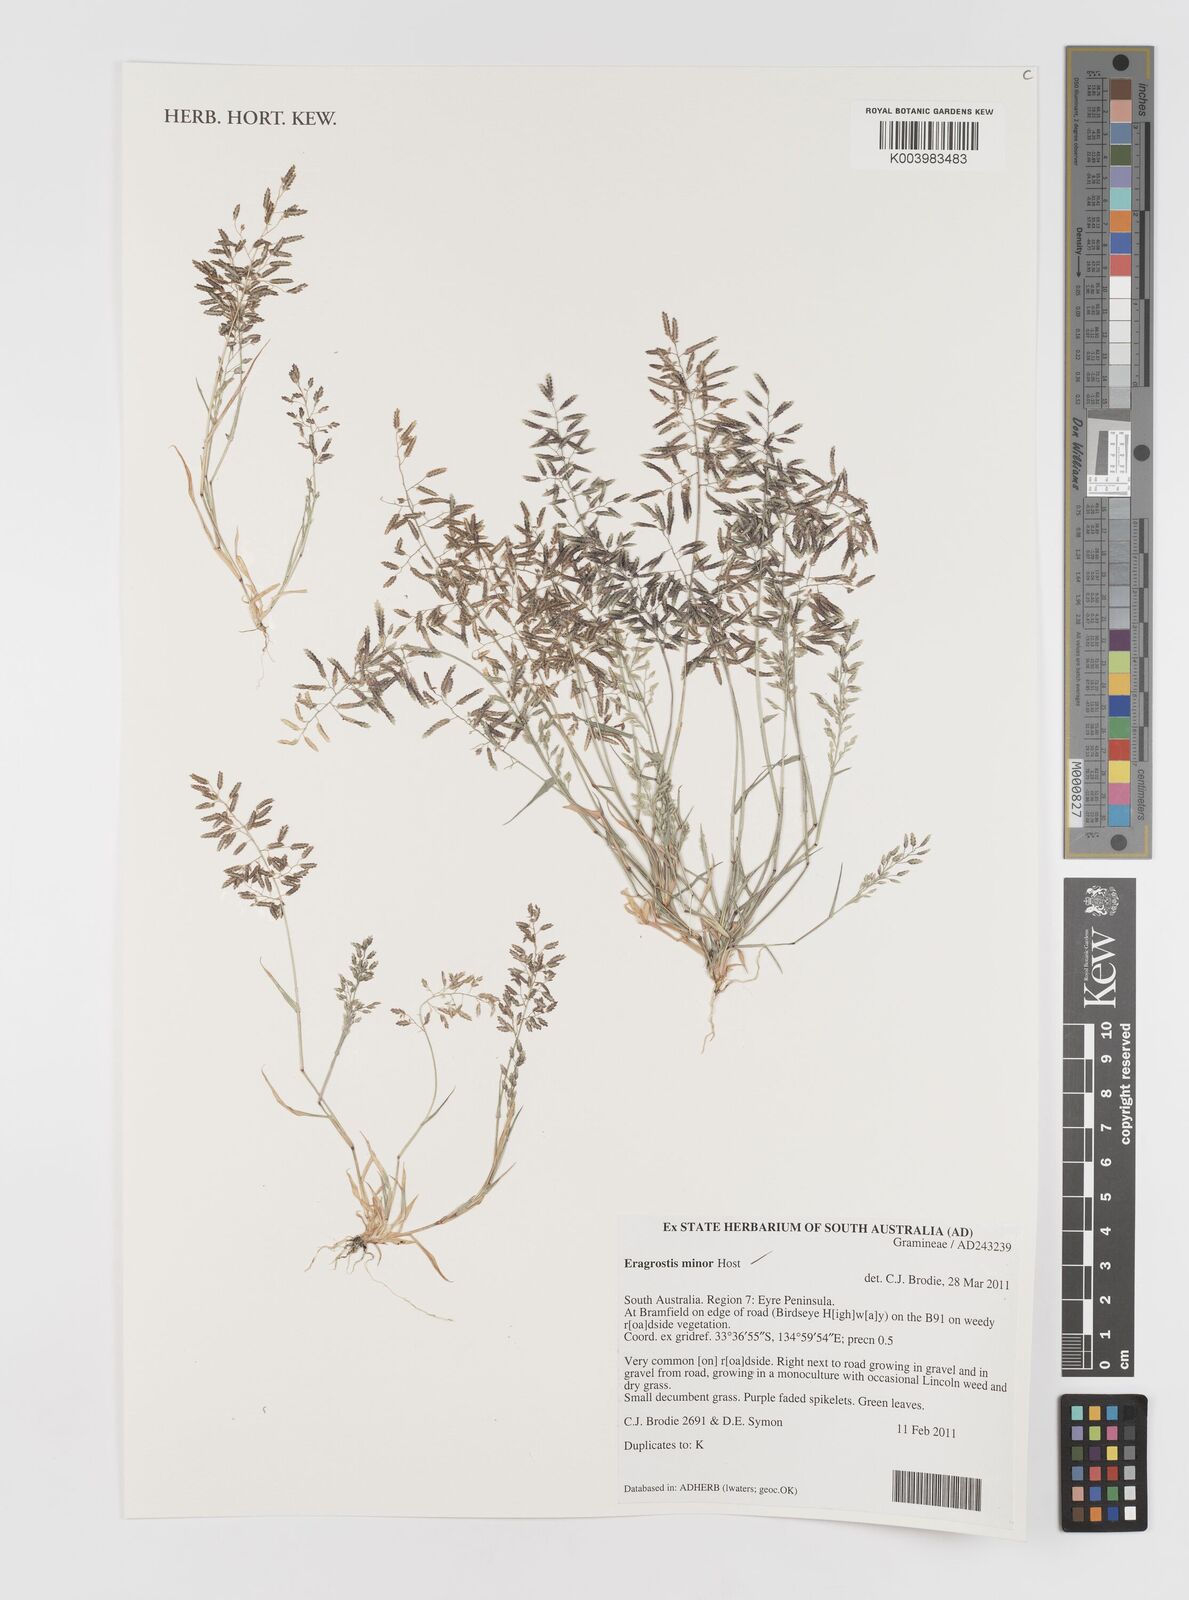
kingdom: Plantae
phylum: Tracheophyta
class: Liliopsida
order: Poales
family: Poaceae
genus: Eragrostis
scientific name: Eragrostis minor
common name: Small love-grass
